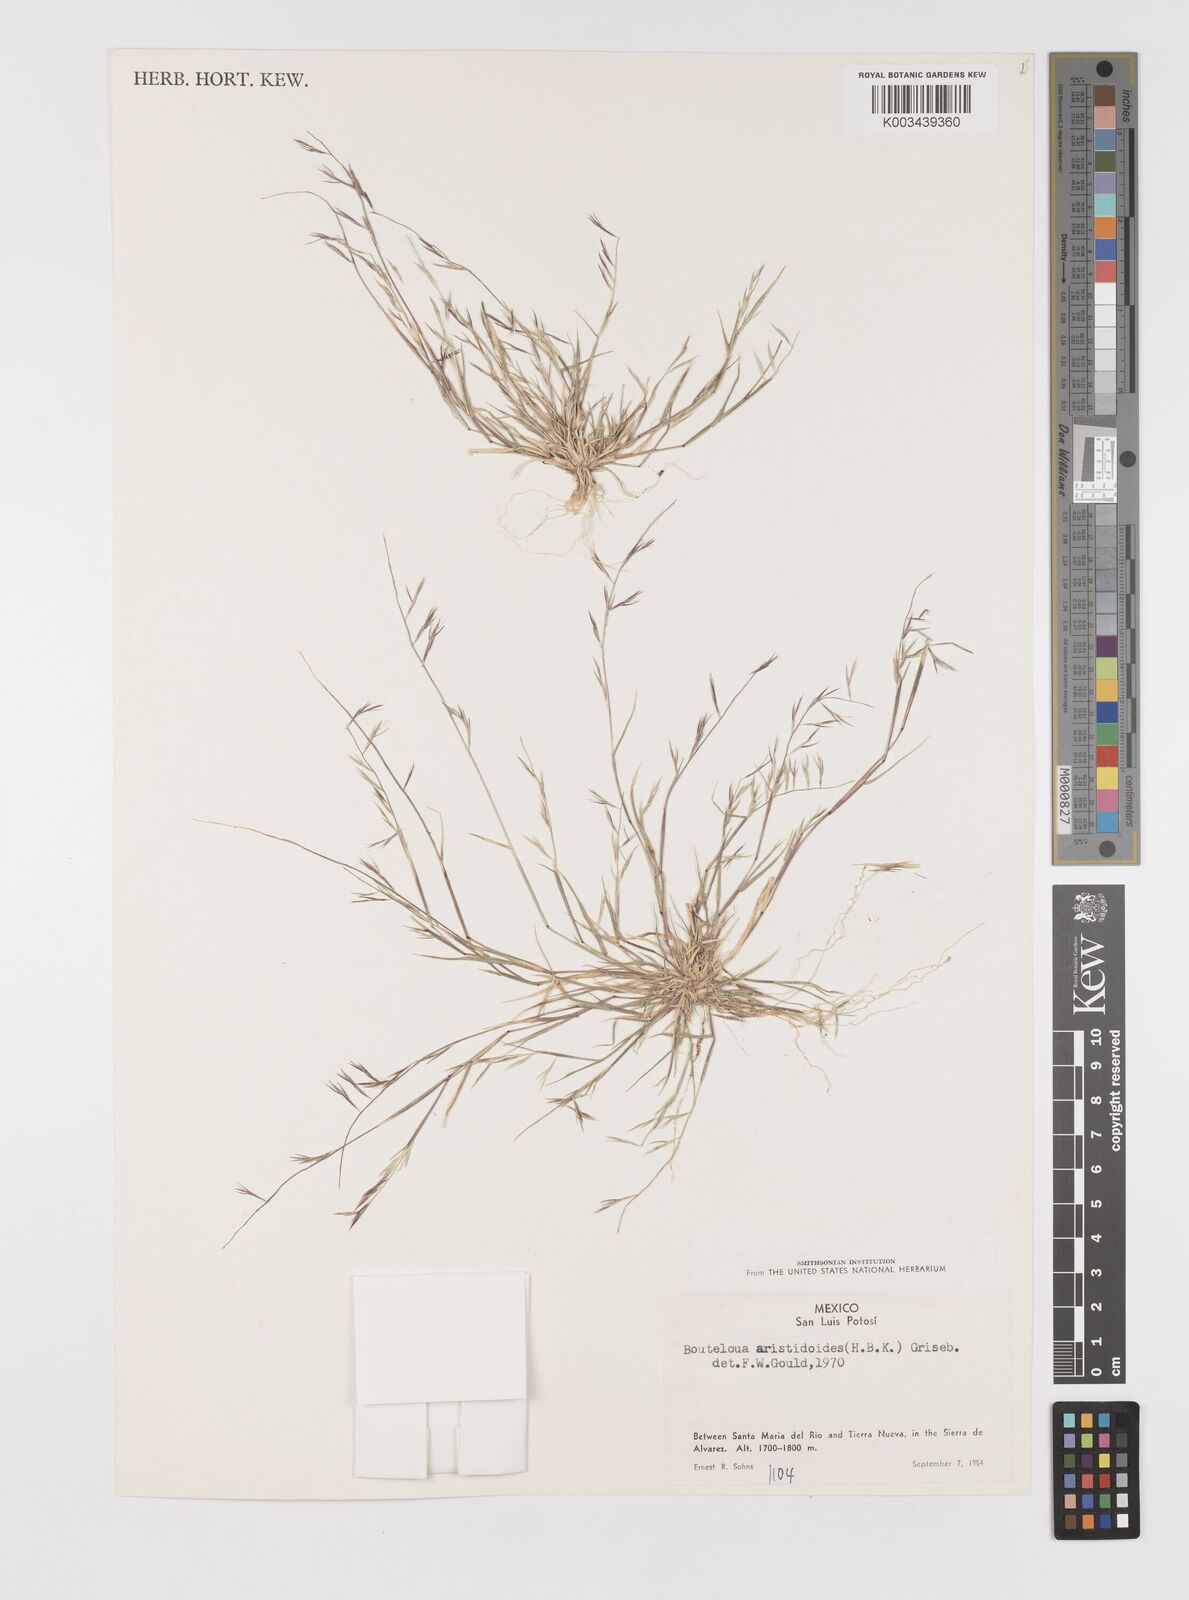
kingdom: Plantae
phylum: Tracheophyta
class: Liliopsida
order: Poales
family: Poaceae
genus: Bouteloua
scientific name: Bouteloua aristidoides
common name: Needle grama
